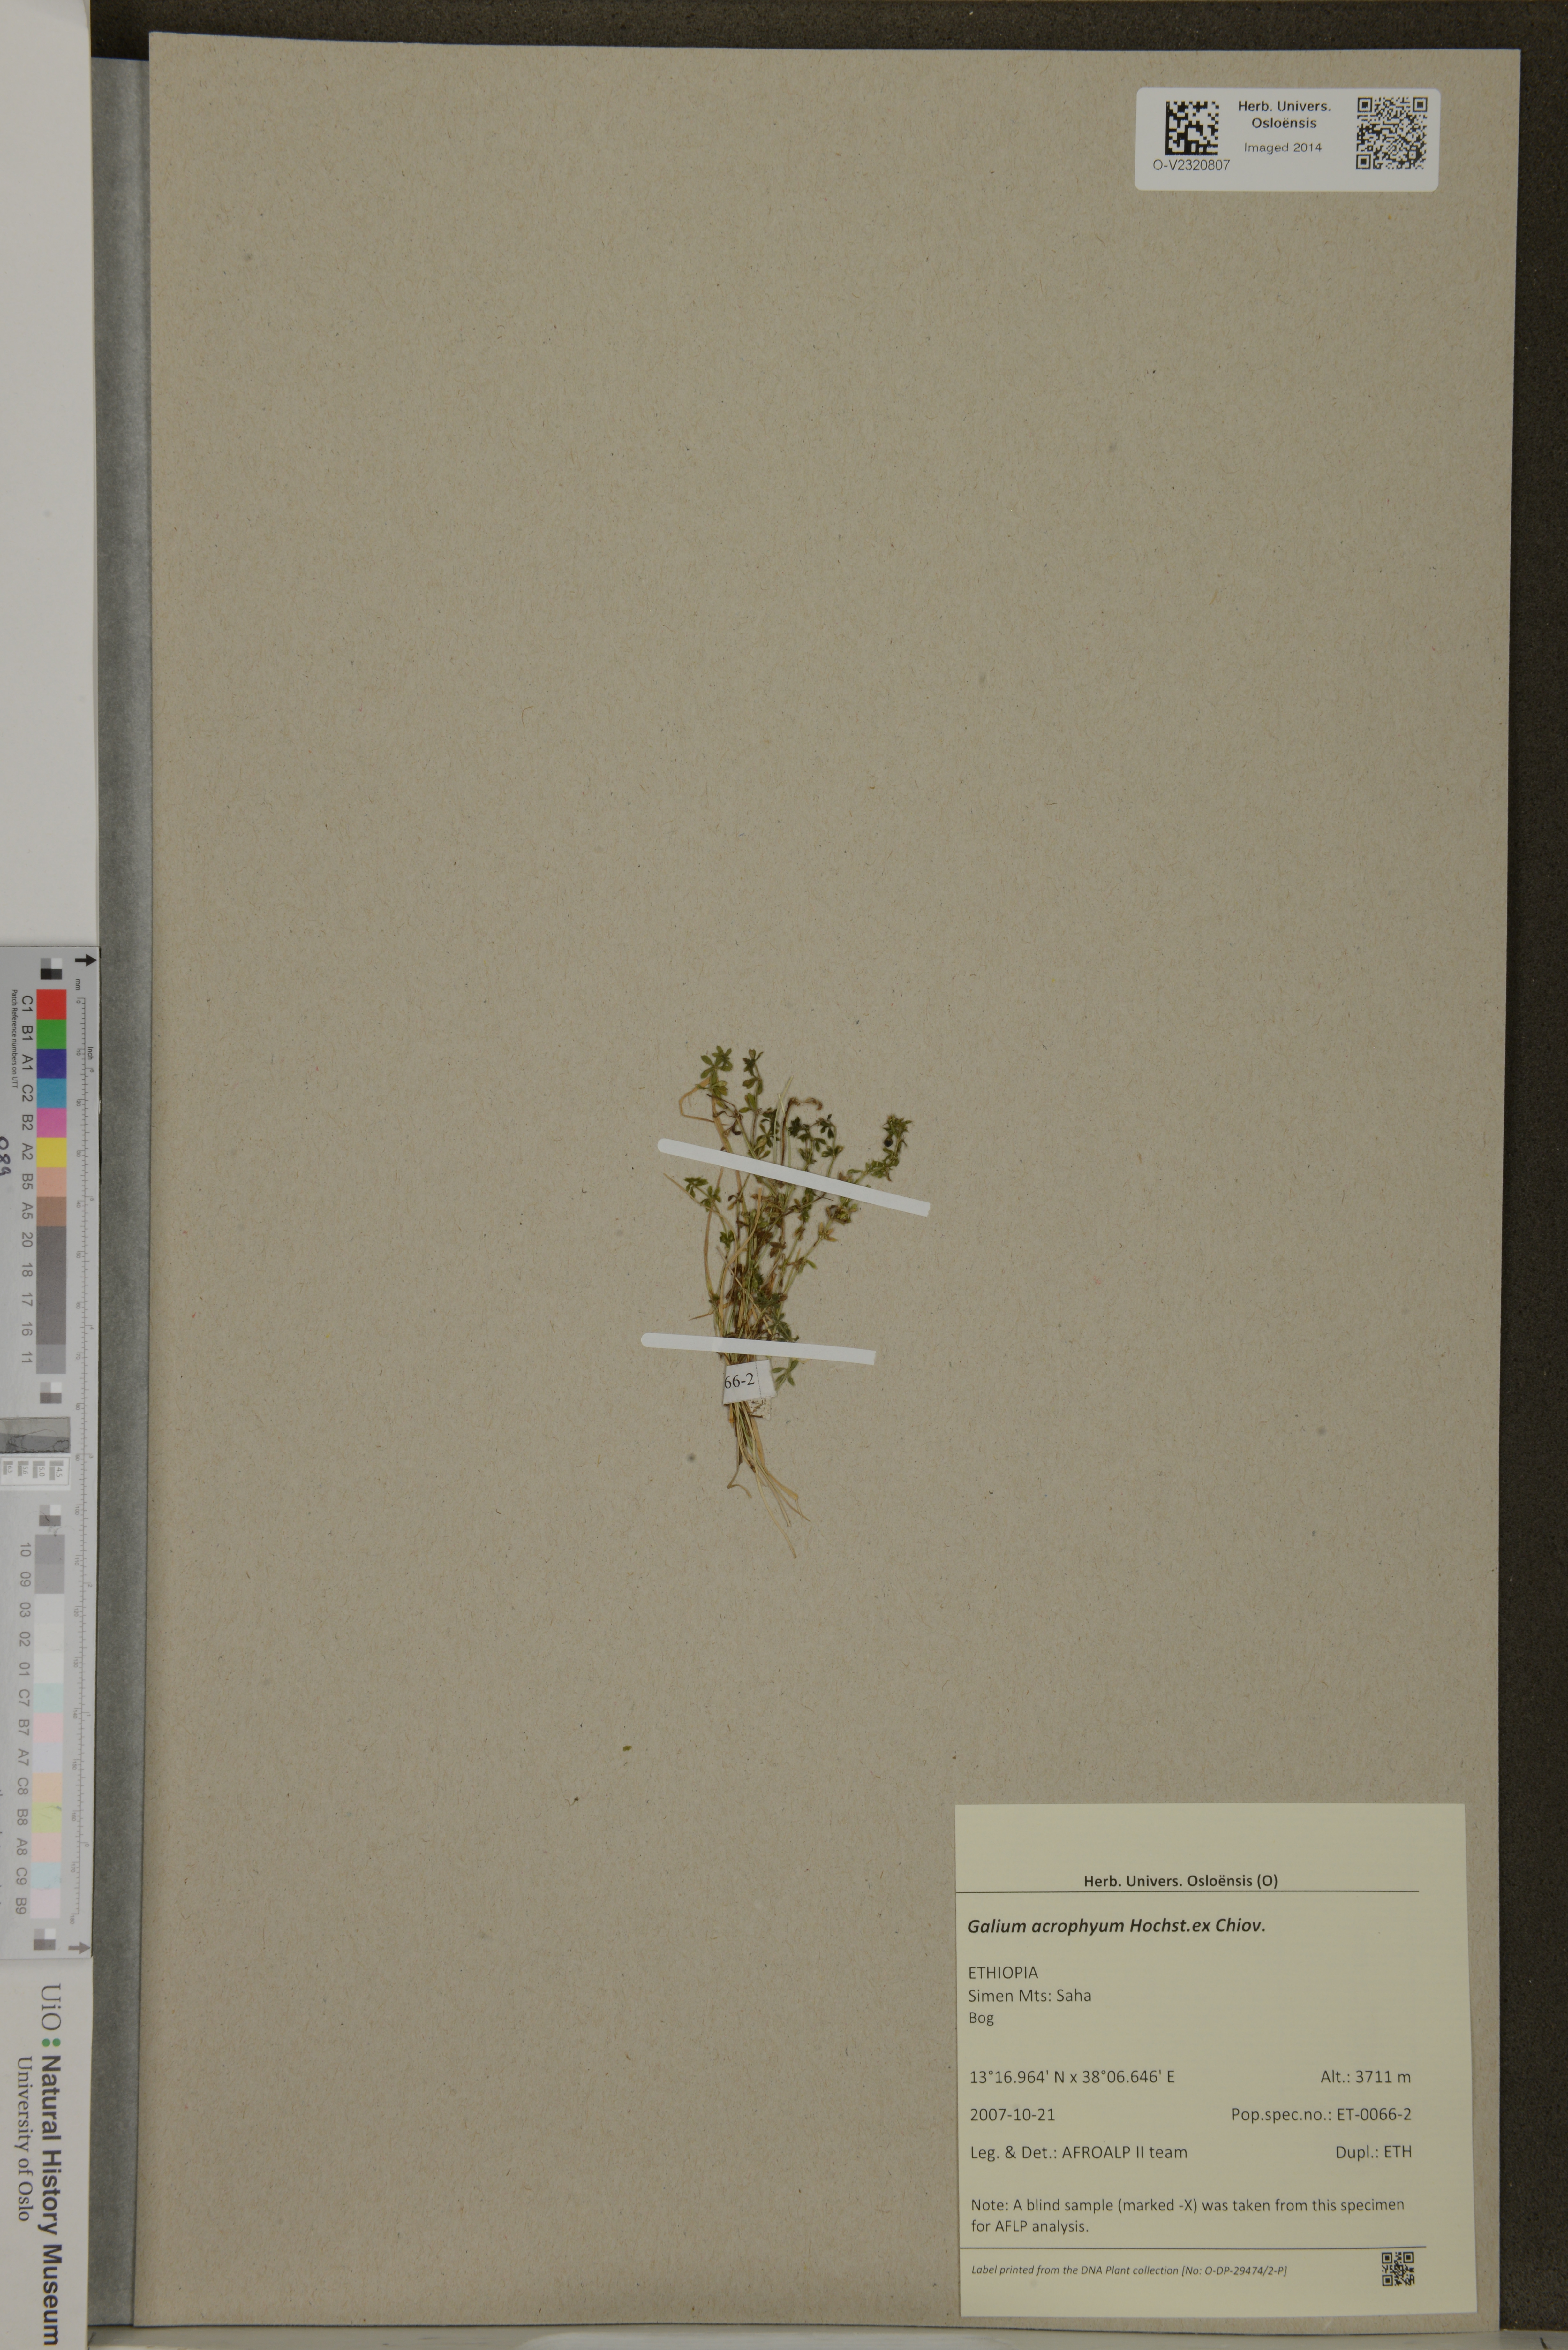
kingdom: Plantae
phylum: Tracheophyta
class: Magnoliopsida
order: Gentianales
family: Rubiaceae
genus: Galium
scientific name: Galium acrophyum
